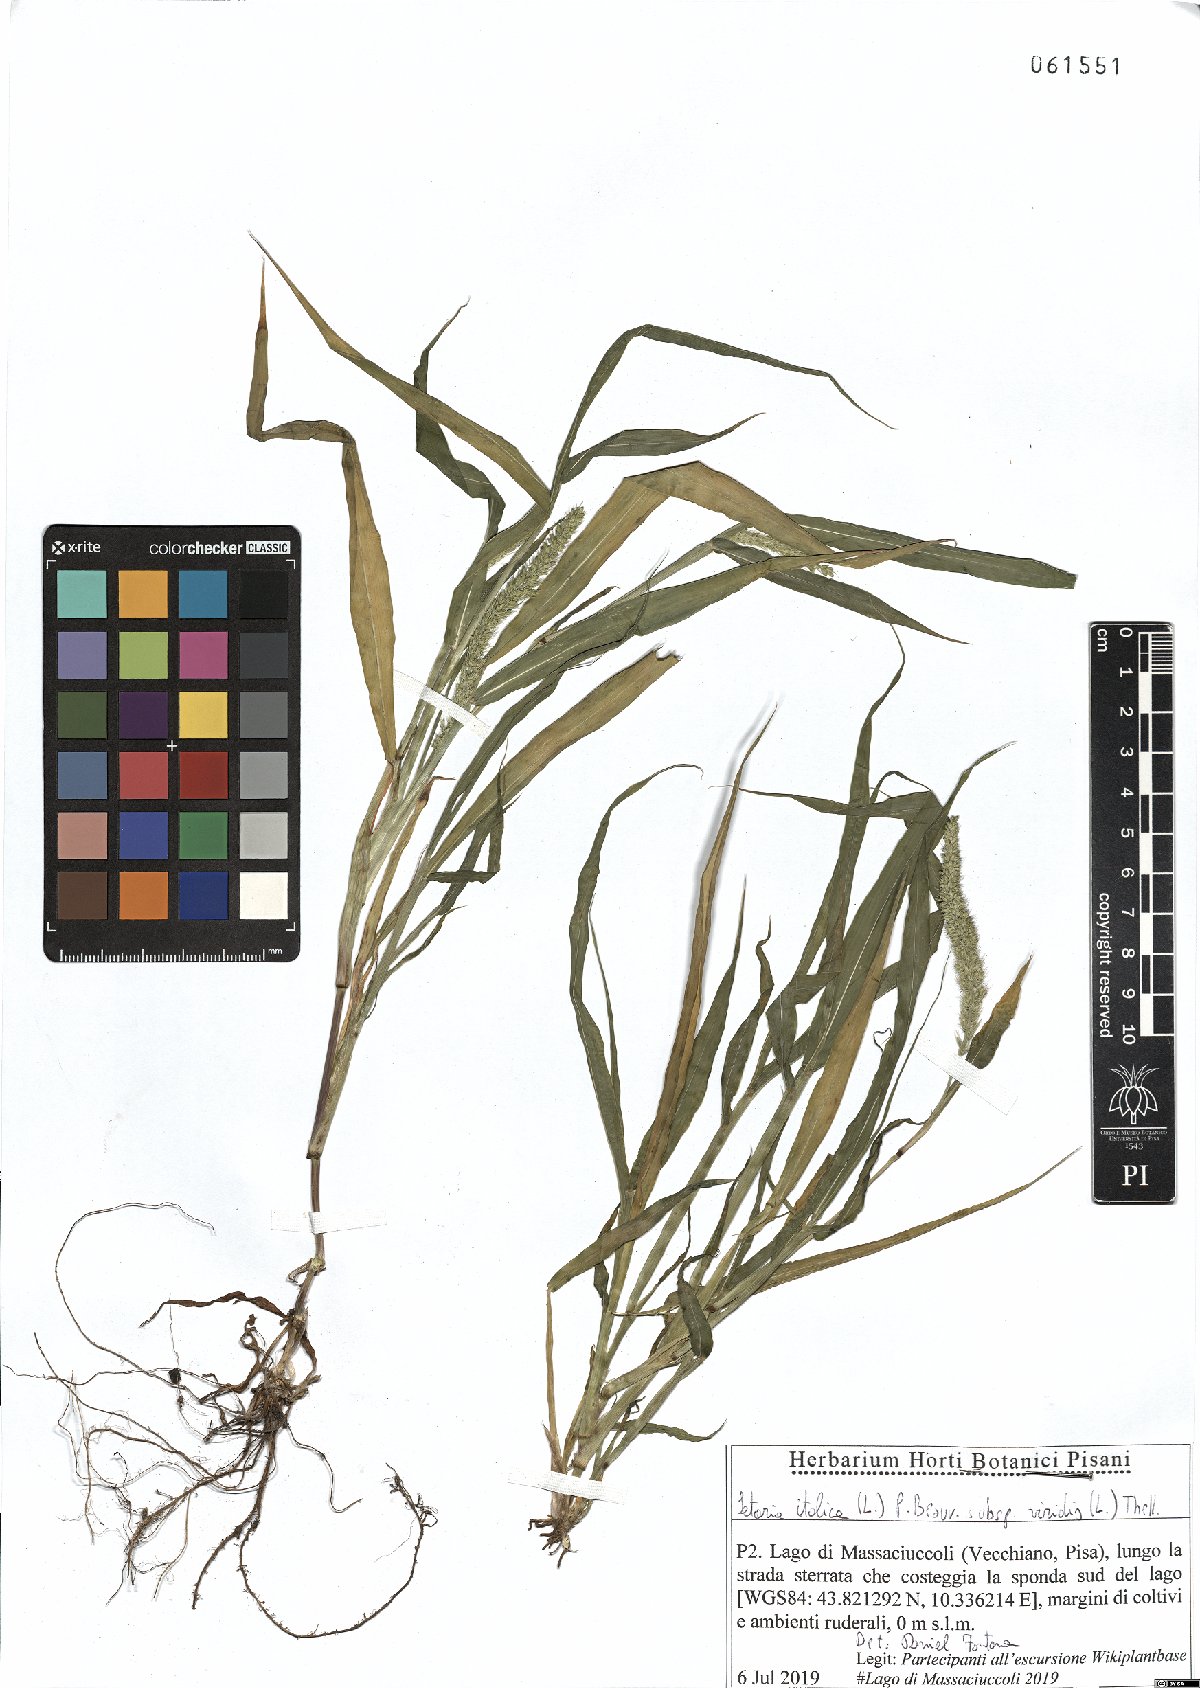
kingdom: Plantae
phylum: Tracheophyta
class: Liliopsida
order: Poales
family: Poaceae
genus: Setaria
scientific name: Setaria viridis
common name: Green bristlegrass
